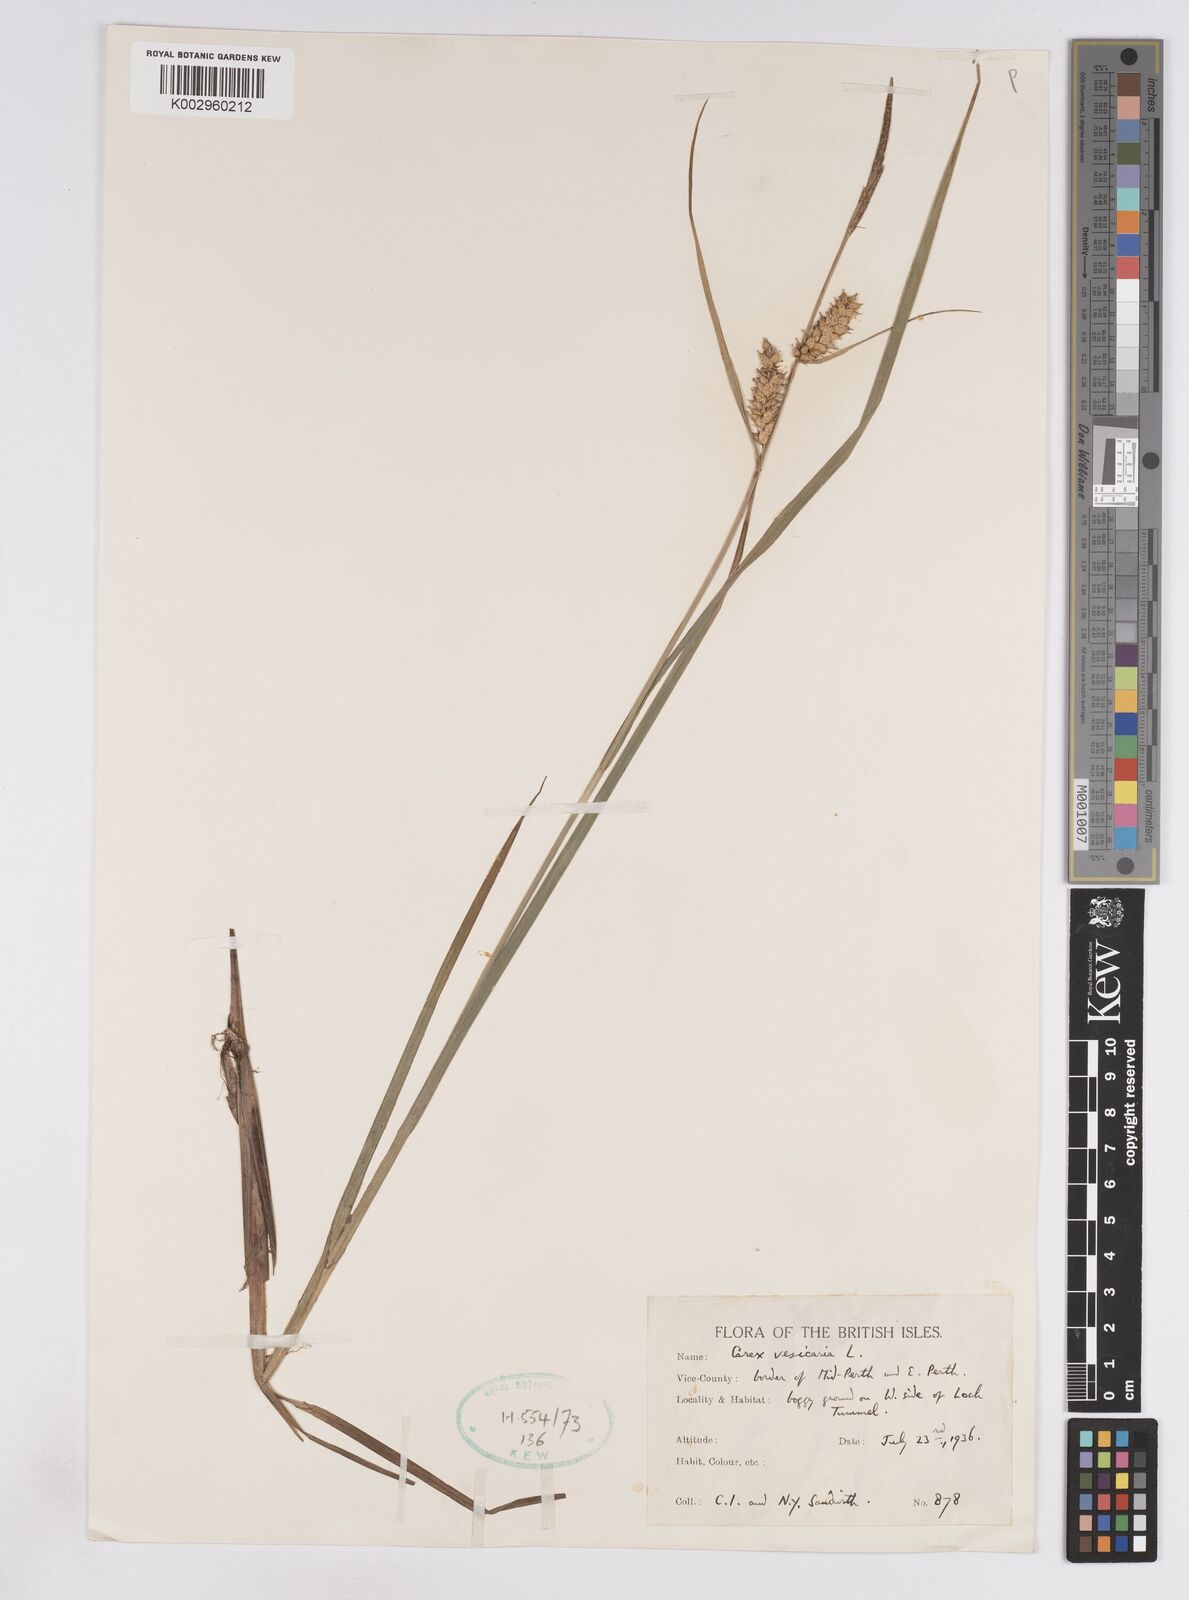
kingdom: Plantae
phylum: Tracheophyta
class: Liliopsida
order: Poales
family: Cyperaceae
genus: Carex
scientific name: Carex vesicaria
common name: Bladder-sedge
